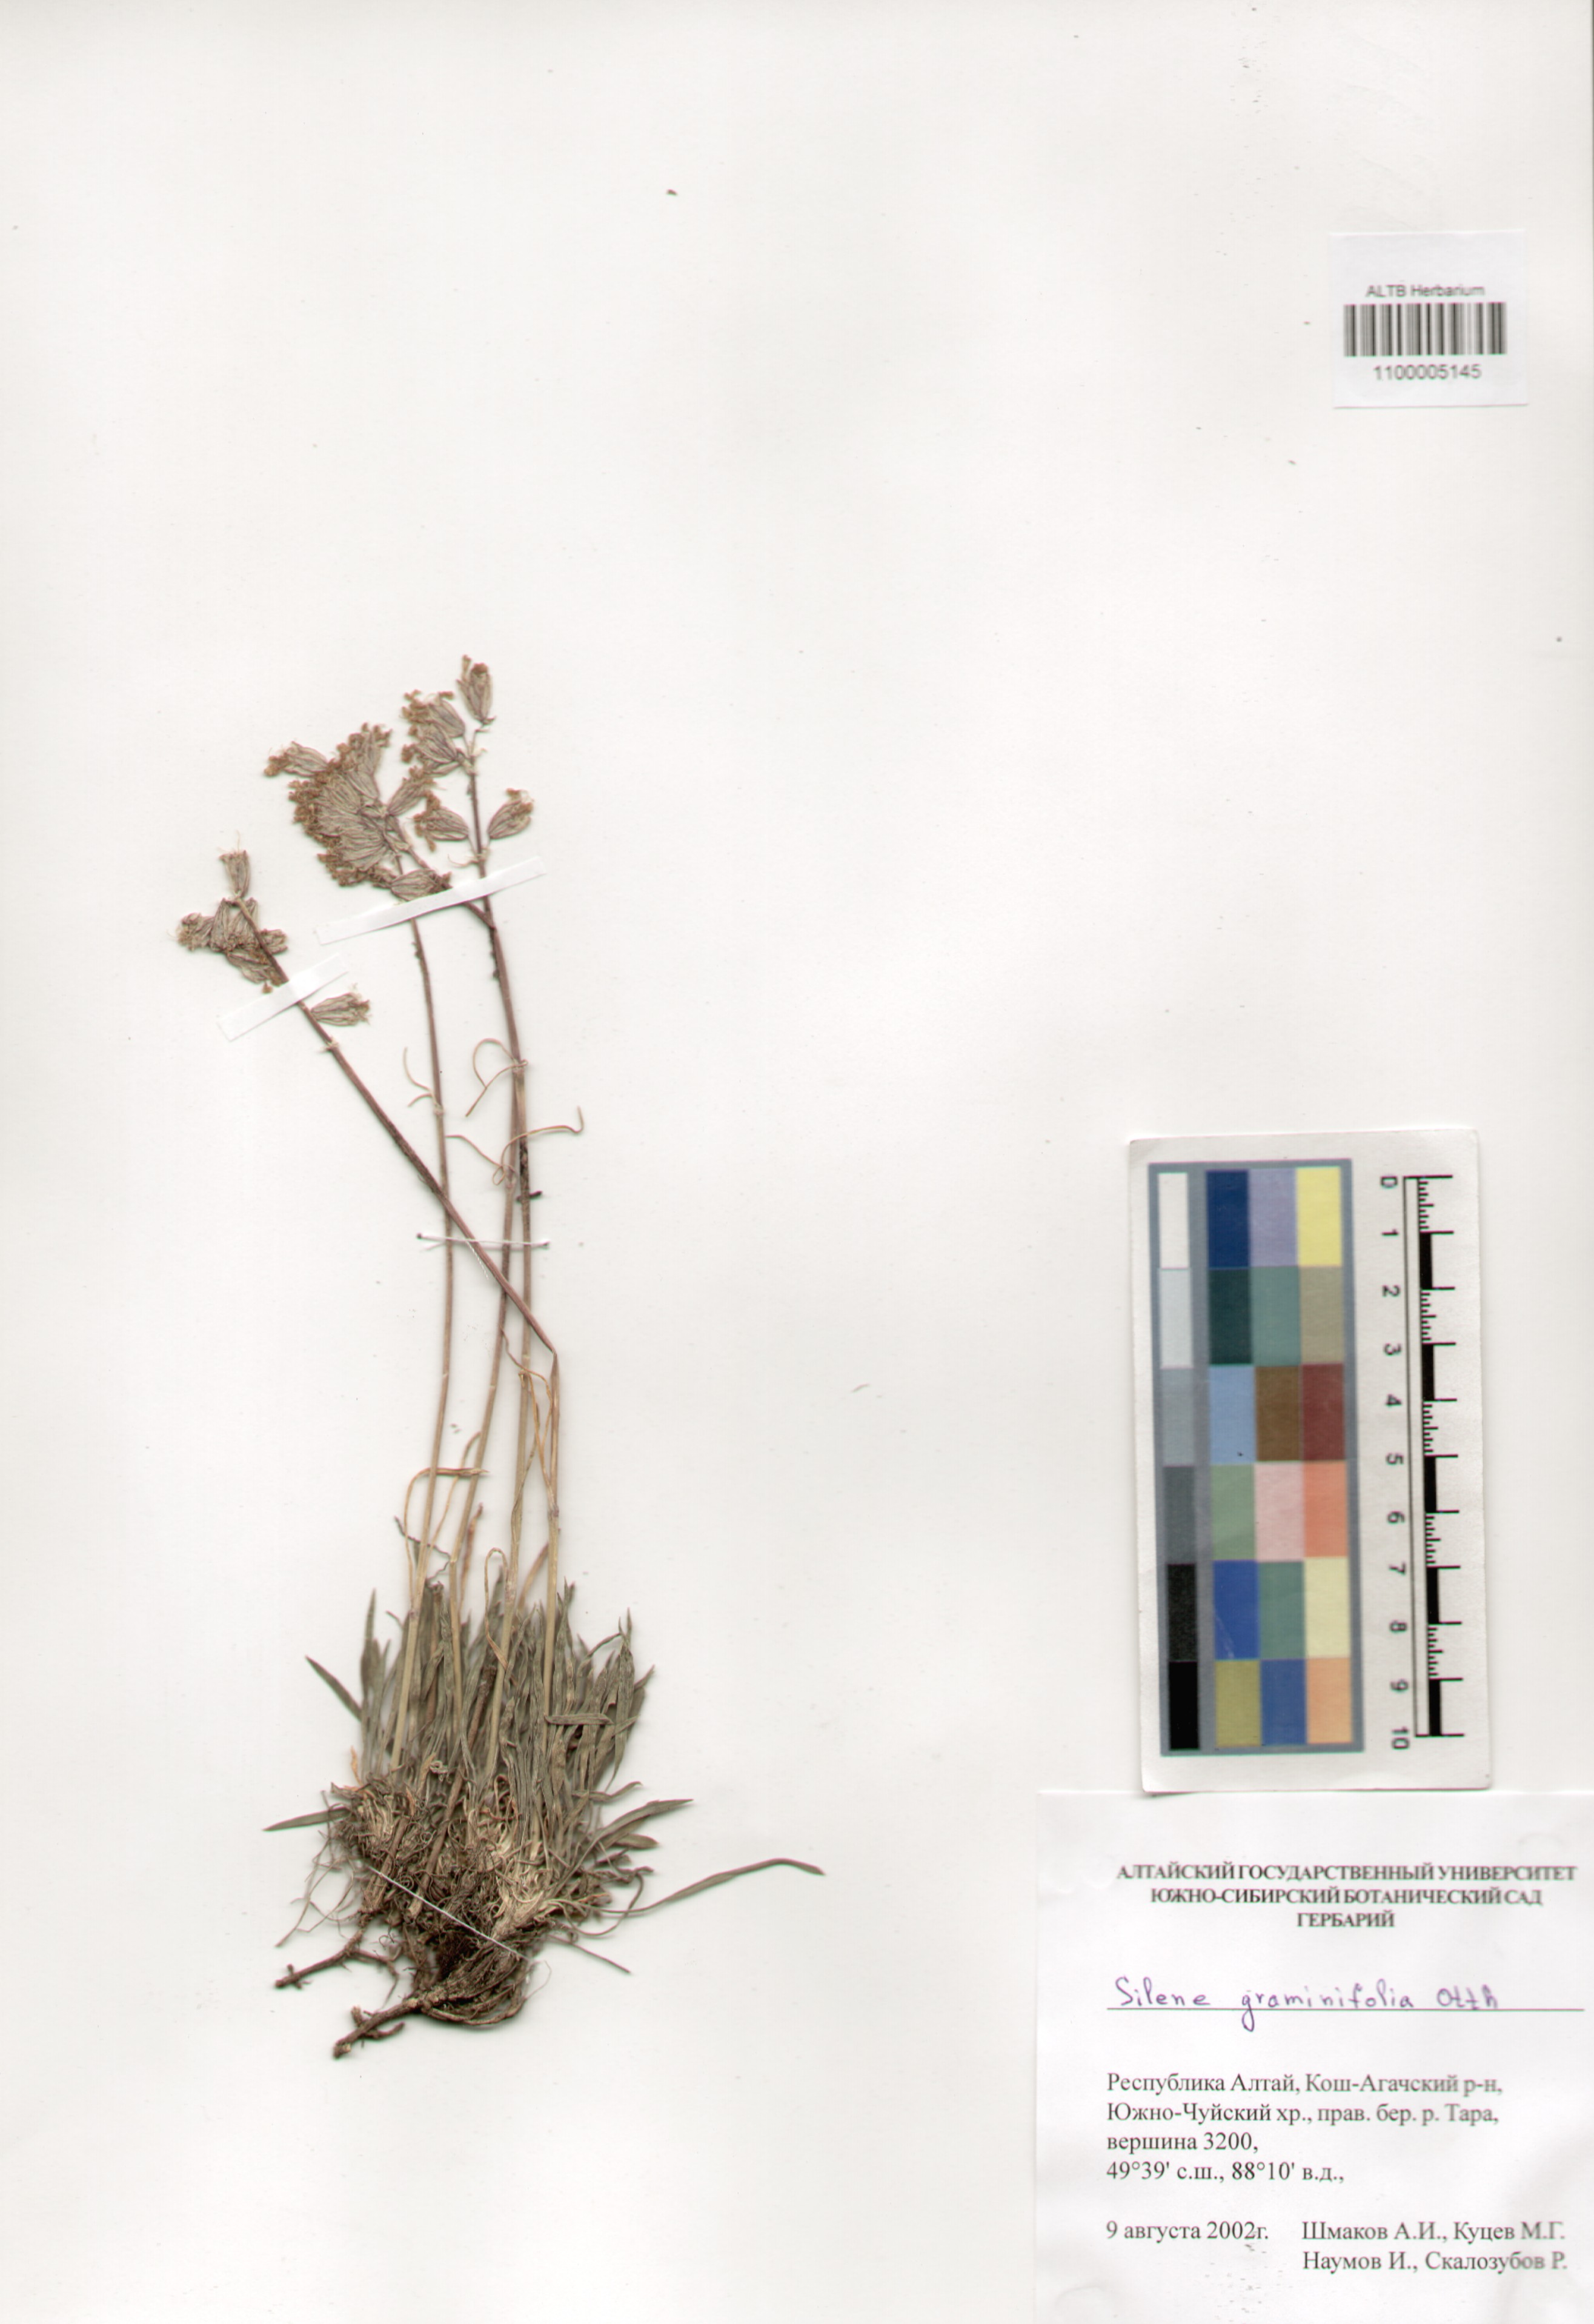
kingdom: Plantae
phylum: Tracheophyta
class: Magnoliopsida
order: Caryophyllales
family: Caryophyllaceae
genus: Silene
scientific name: Silene graminifolia
